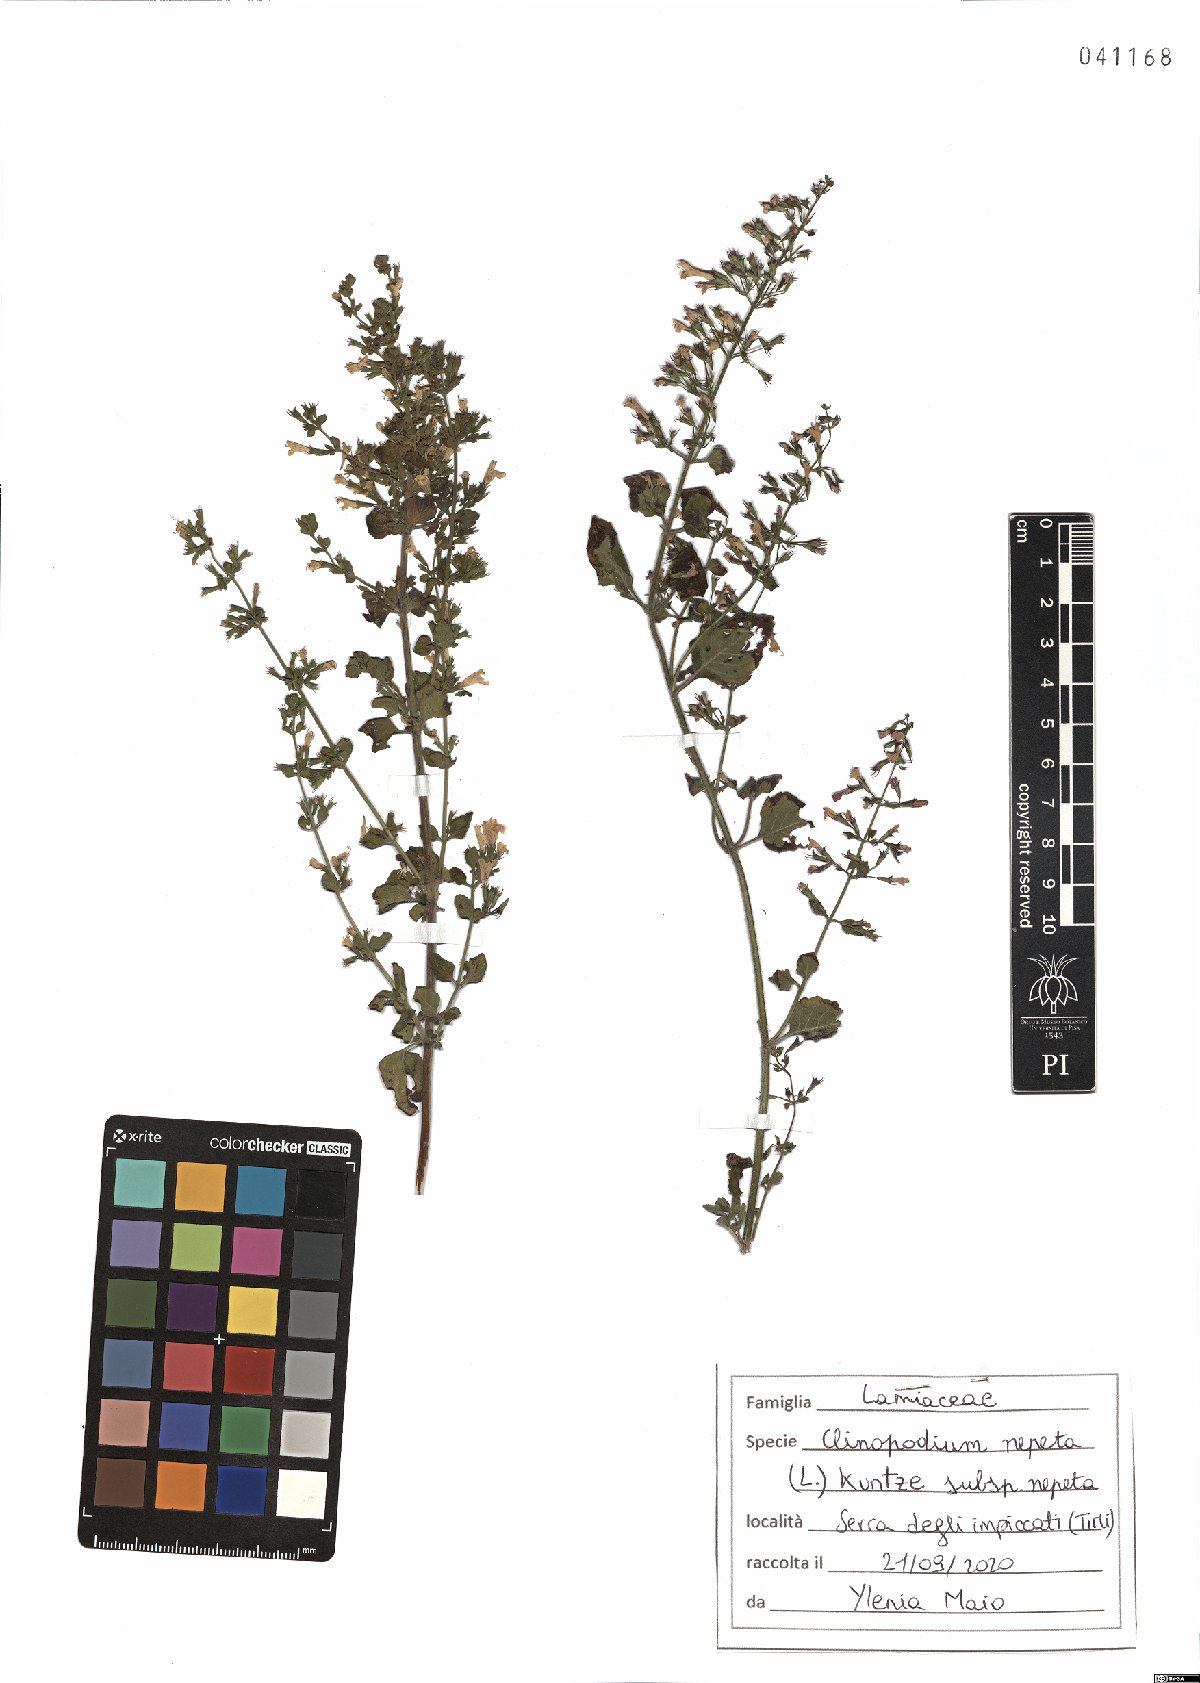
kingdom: Plantae
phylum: Tracheophyta
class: Magnoliopsida
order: Lamiales
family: Lamiaceae
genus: Clinopodium
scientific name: Clinopodium nepeta
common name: Lesser calamint
